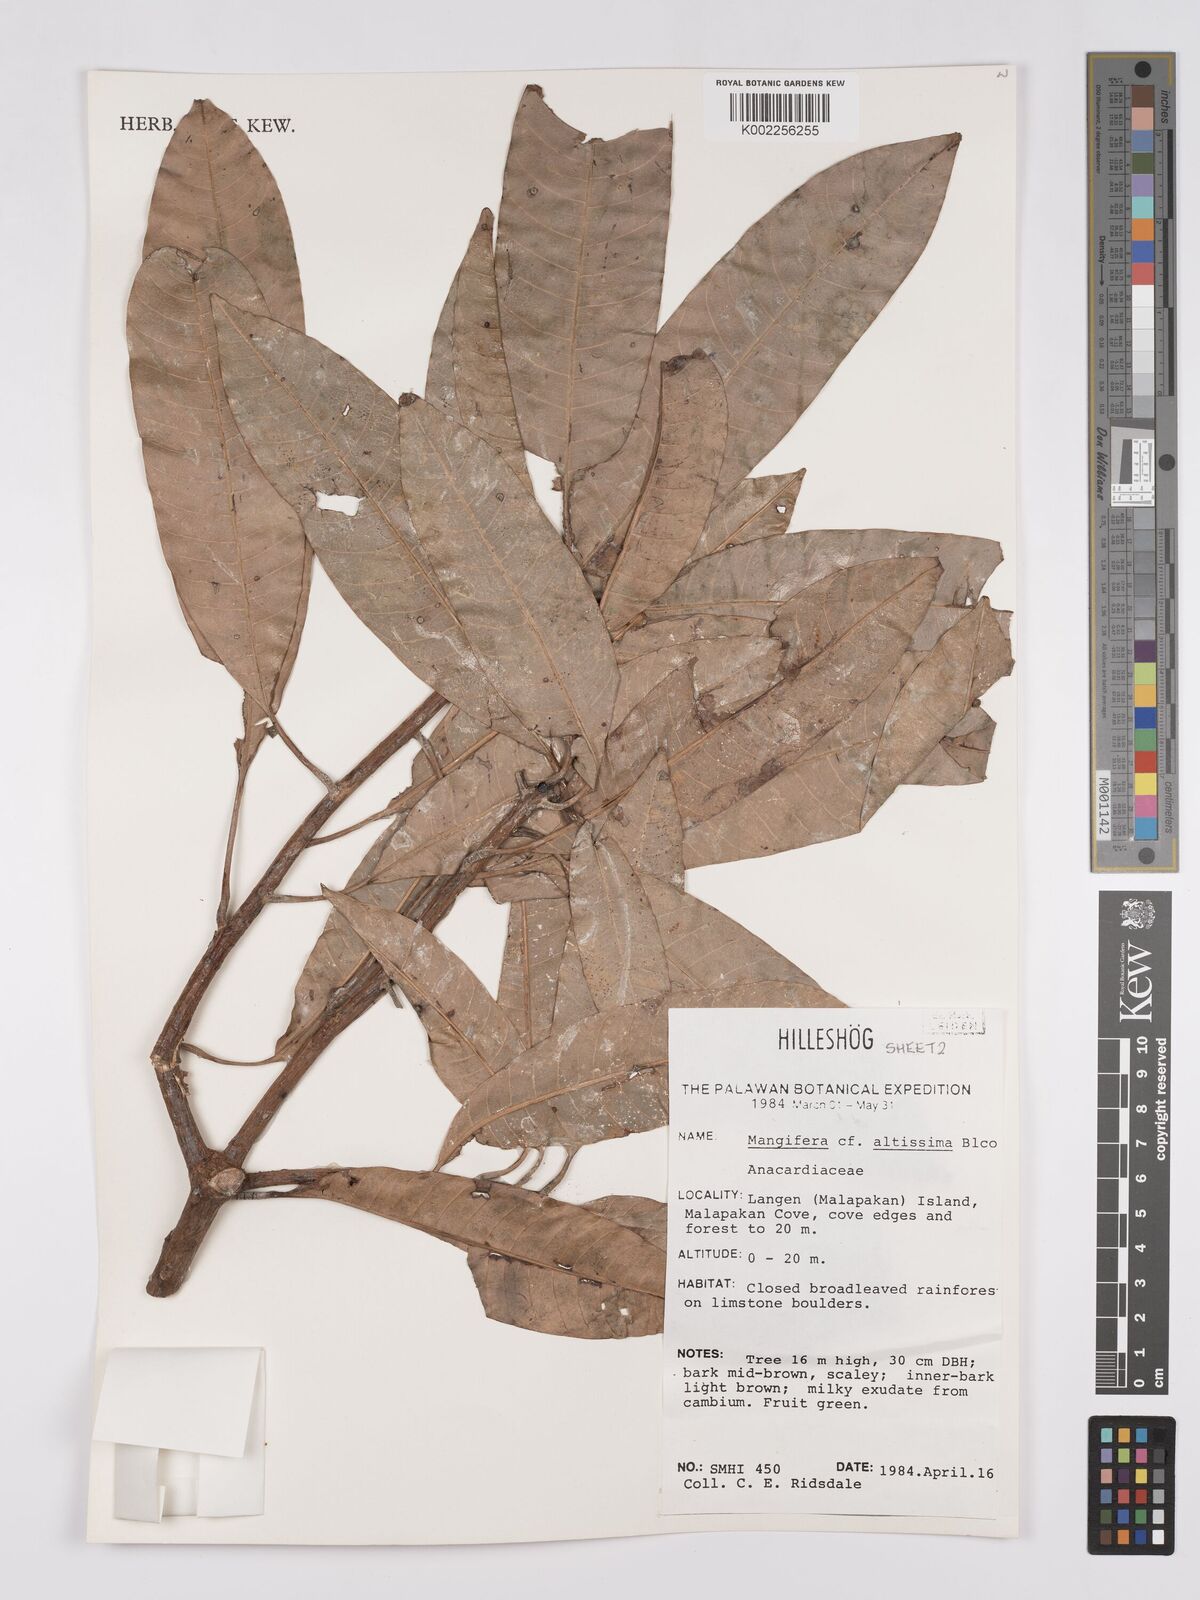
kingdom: Plantae
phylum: Tracheophyta
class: Magnoliopsida
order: Sapindales
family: Anacardiaceae
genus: Mangifera
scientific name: Mangifera altissima
